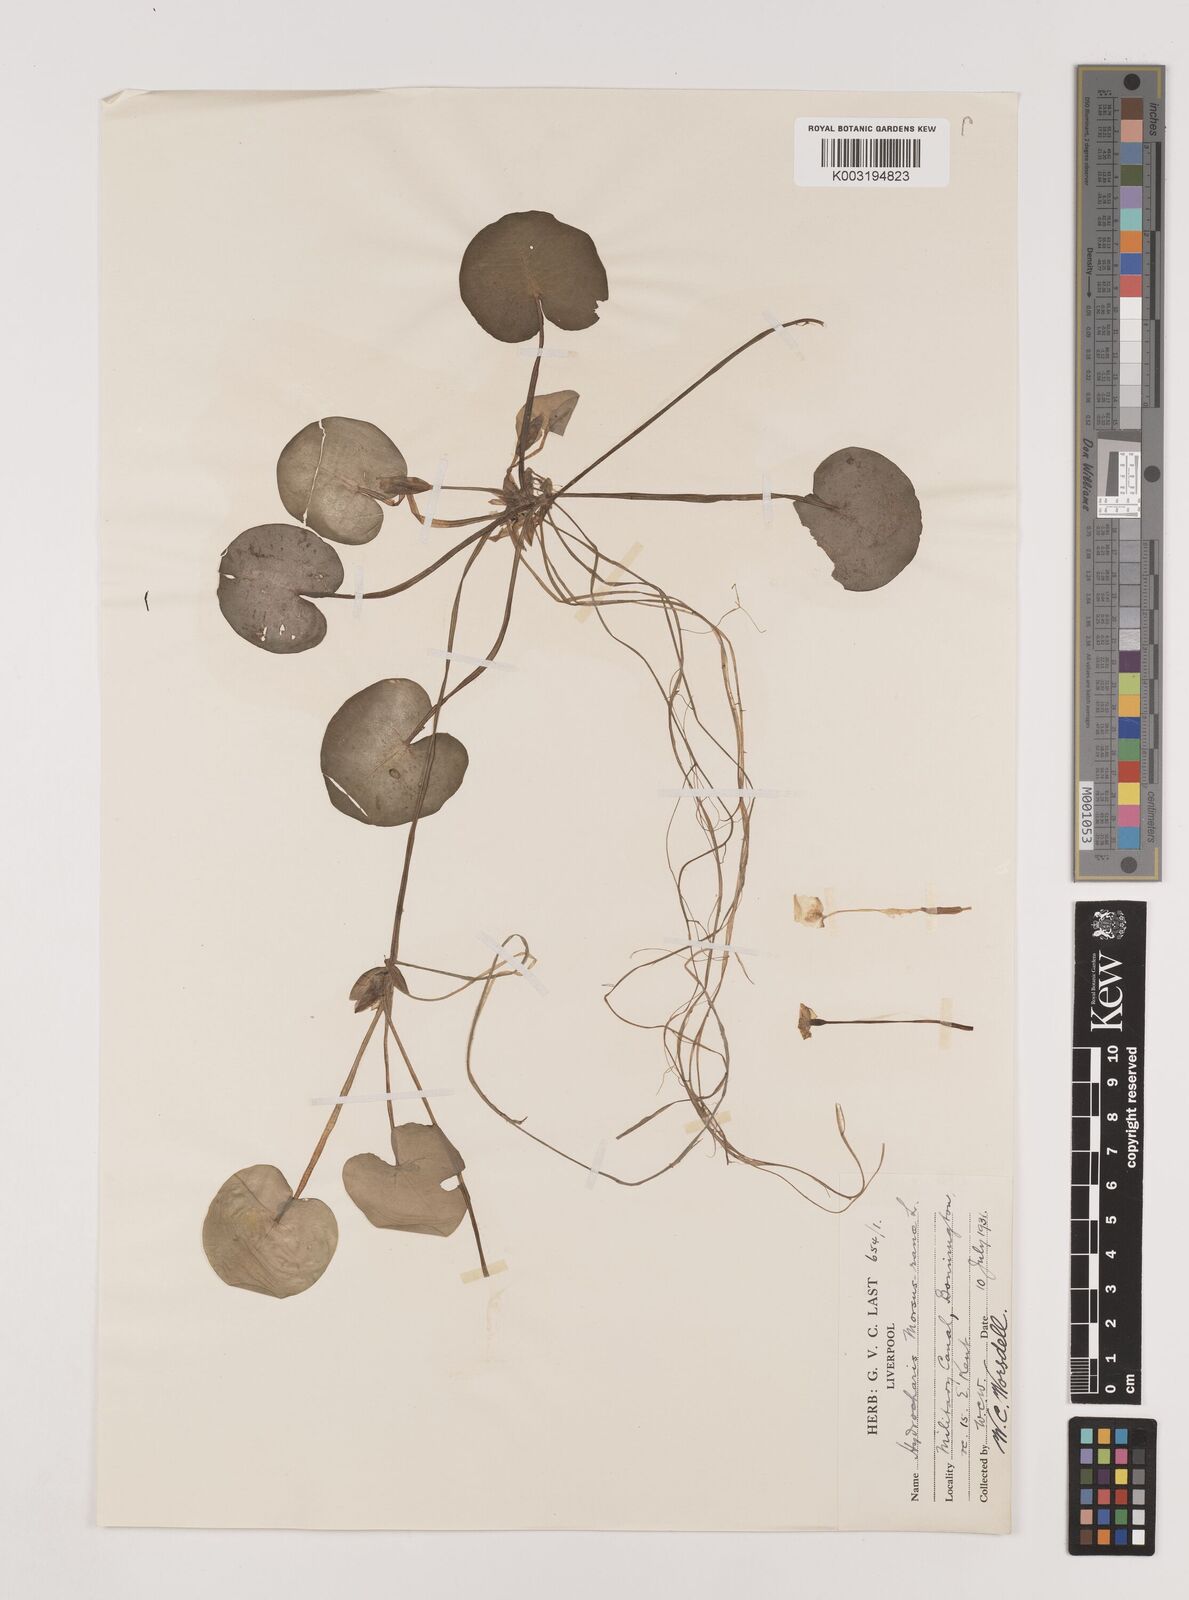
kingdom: Plantae
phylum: Tracheophyta
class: Liliopsida
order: Alismatales
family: Hydrocharitaceae
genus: Hydrocharis
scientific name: Hydrocharis morsus-ranae
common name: Frogbit
